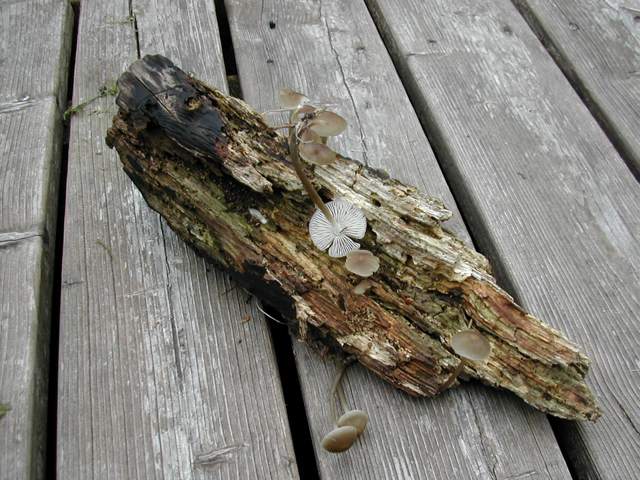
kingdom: Fungi
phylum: Basidiomycota
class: Agaricomycetes
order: Agaricales
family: Mycenaceae
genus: Mycena
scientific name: Mycena galericulata
